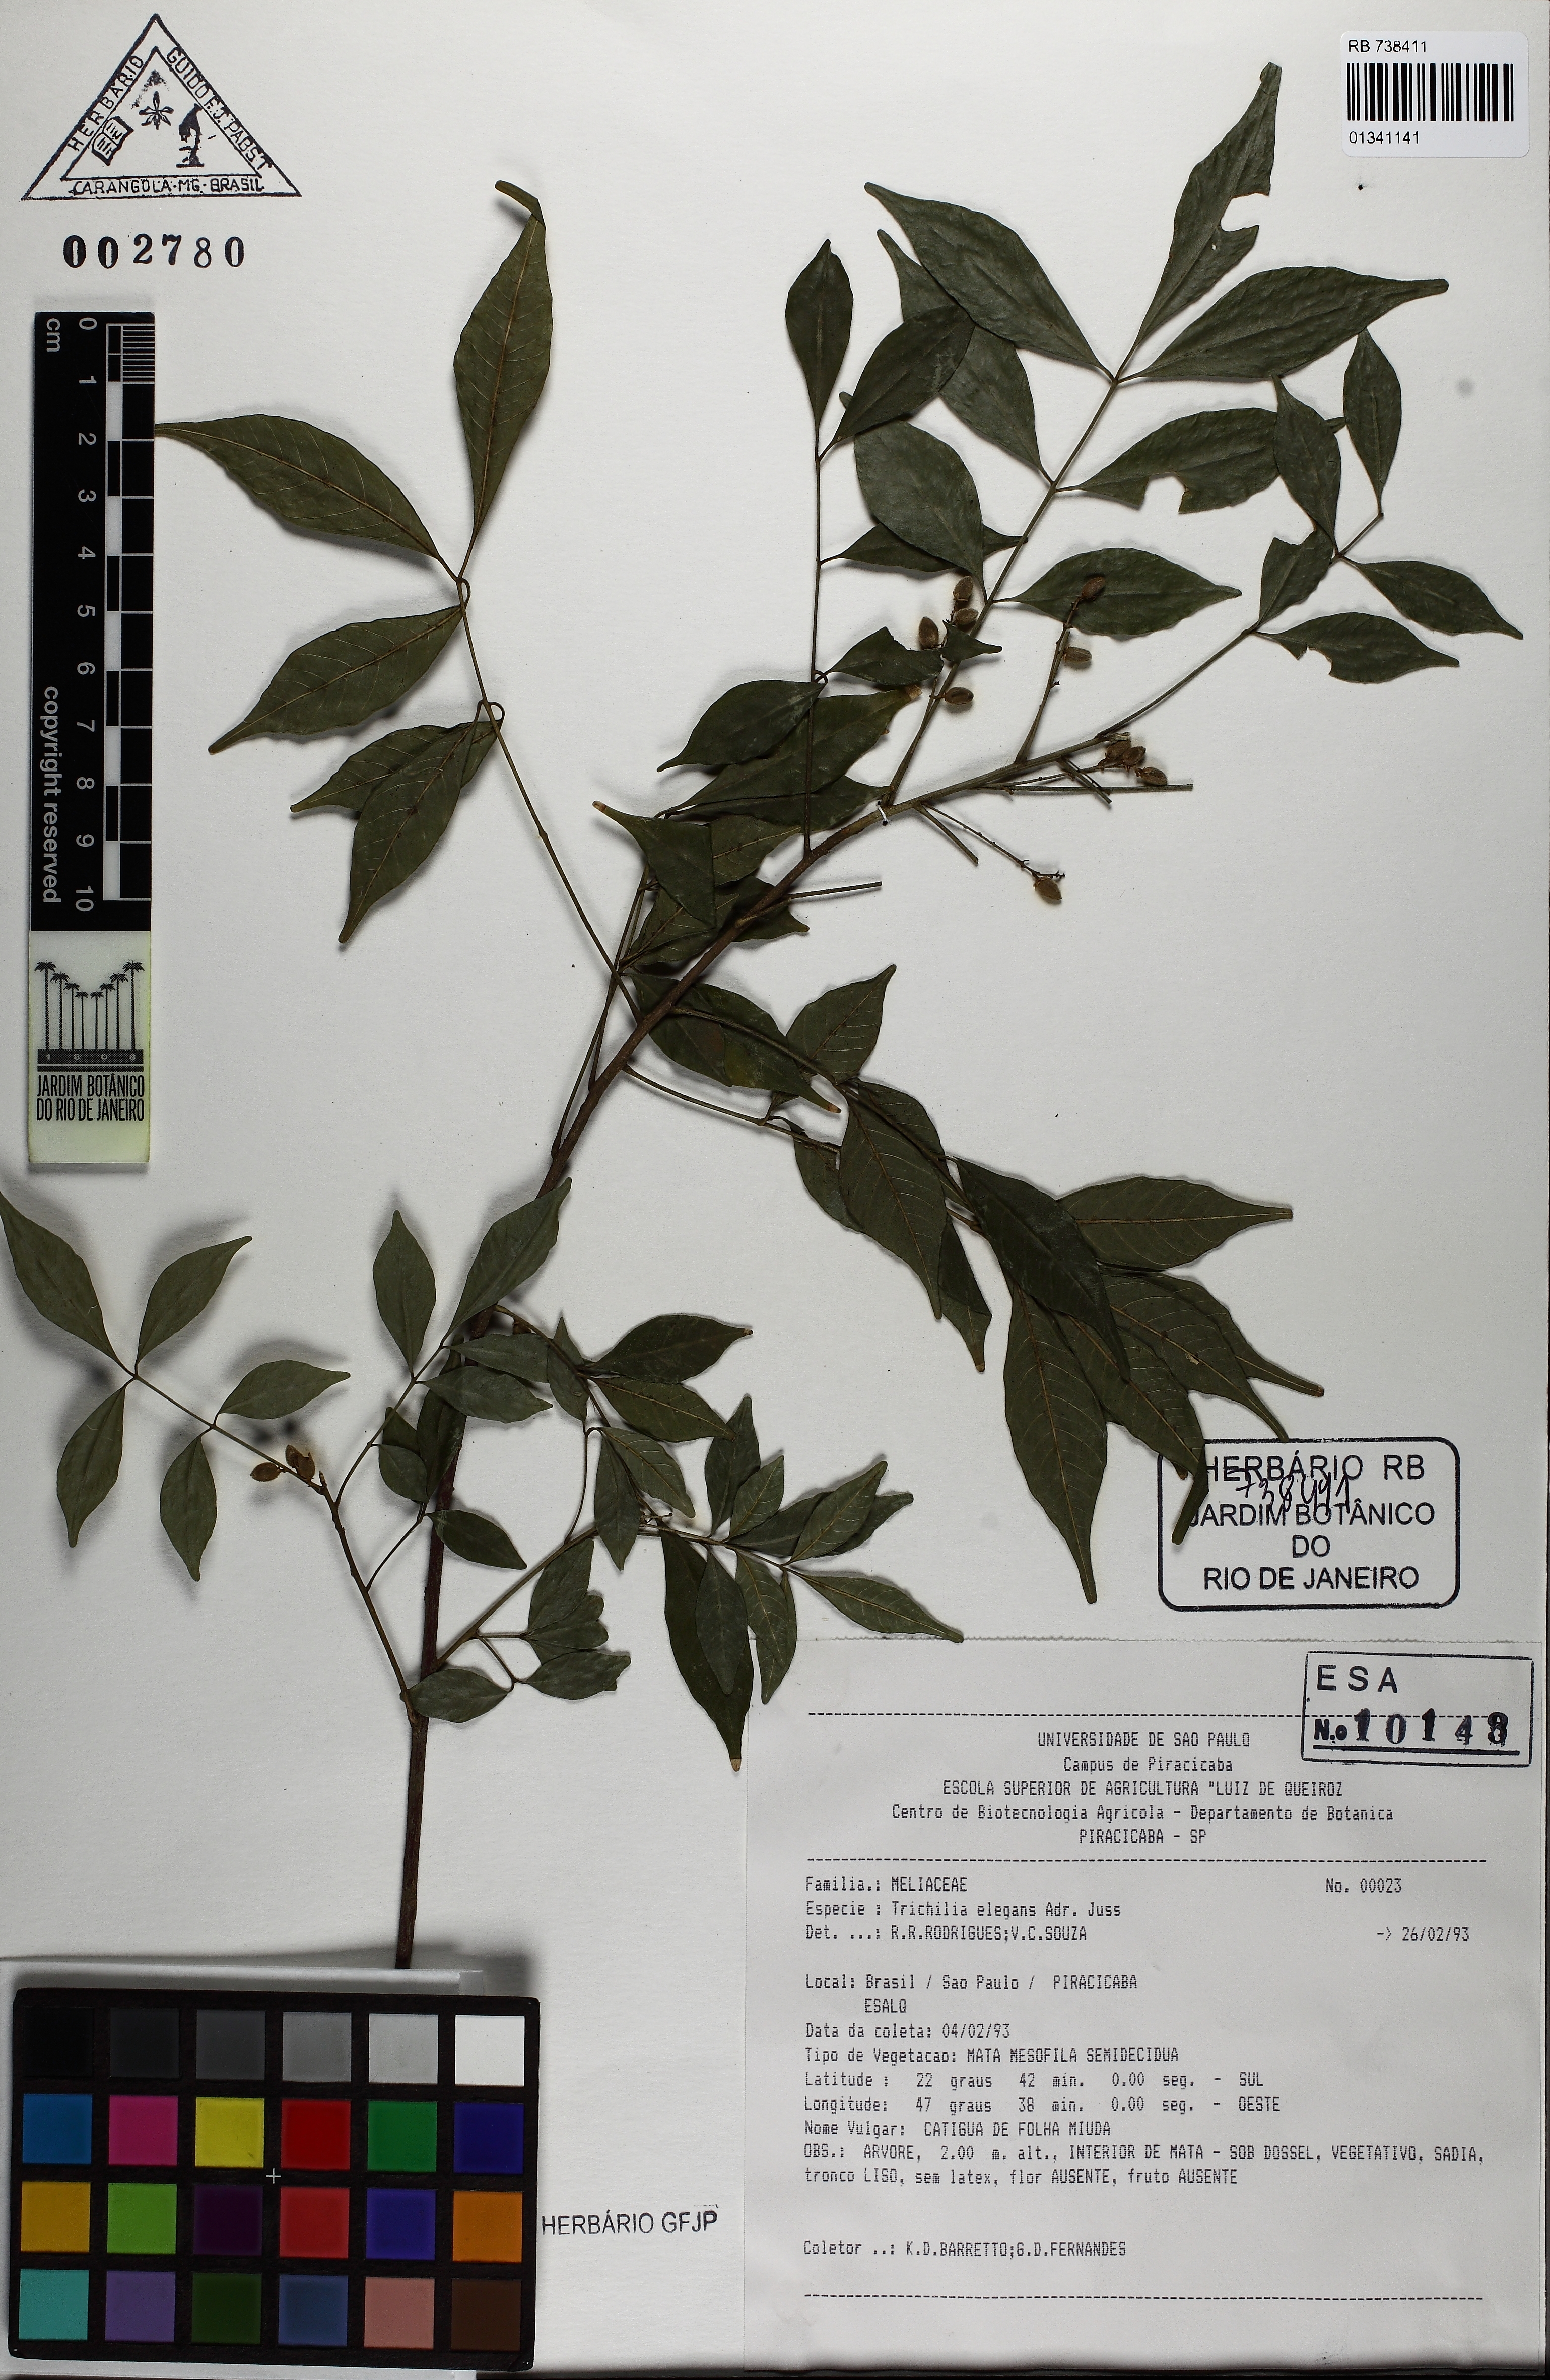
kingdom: Plantae
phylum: Tracheophyta
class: Magnoliopsida
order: Sapindales
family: Meliaceae
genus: Trichilia
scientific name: Trichilia elegans
